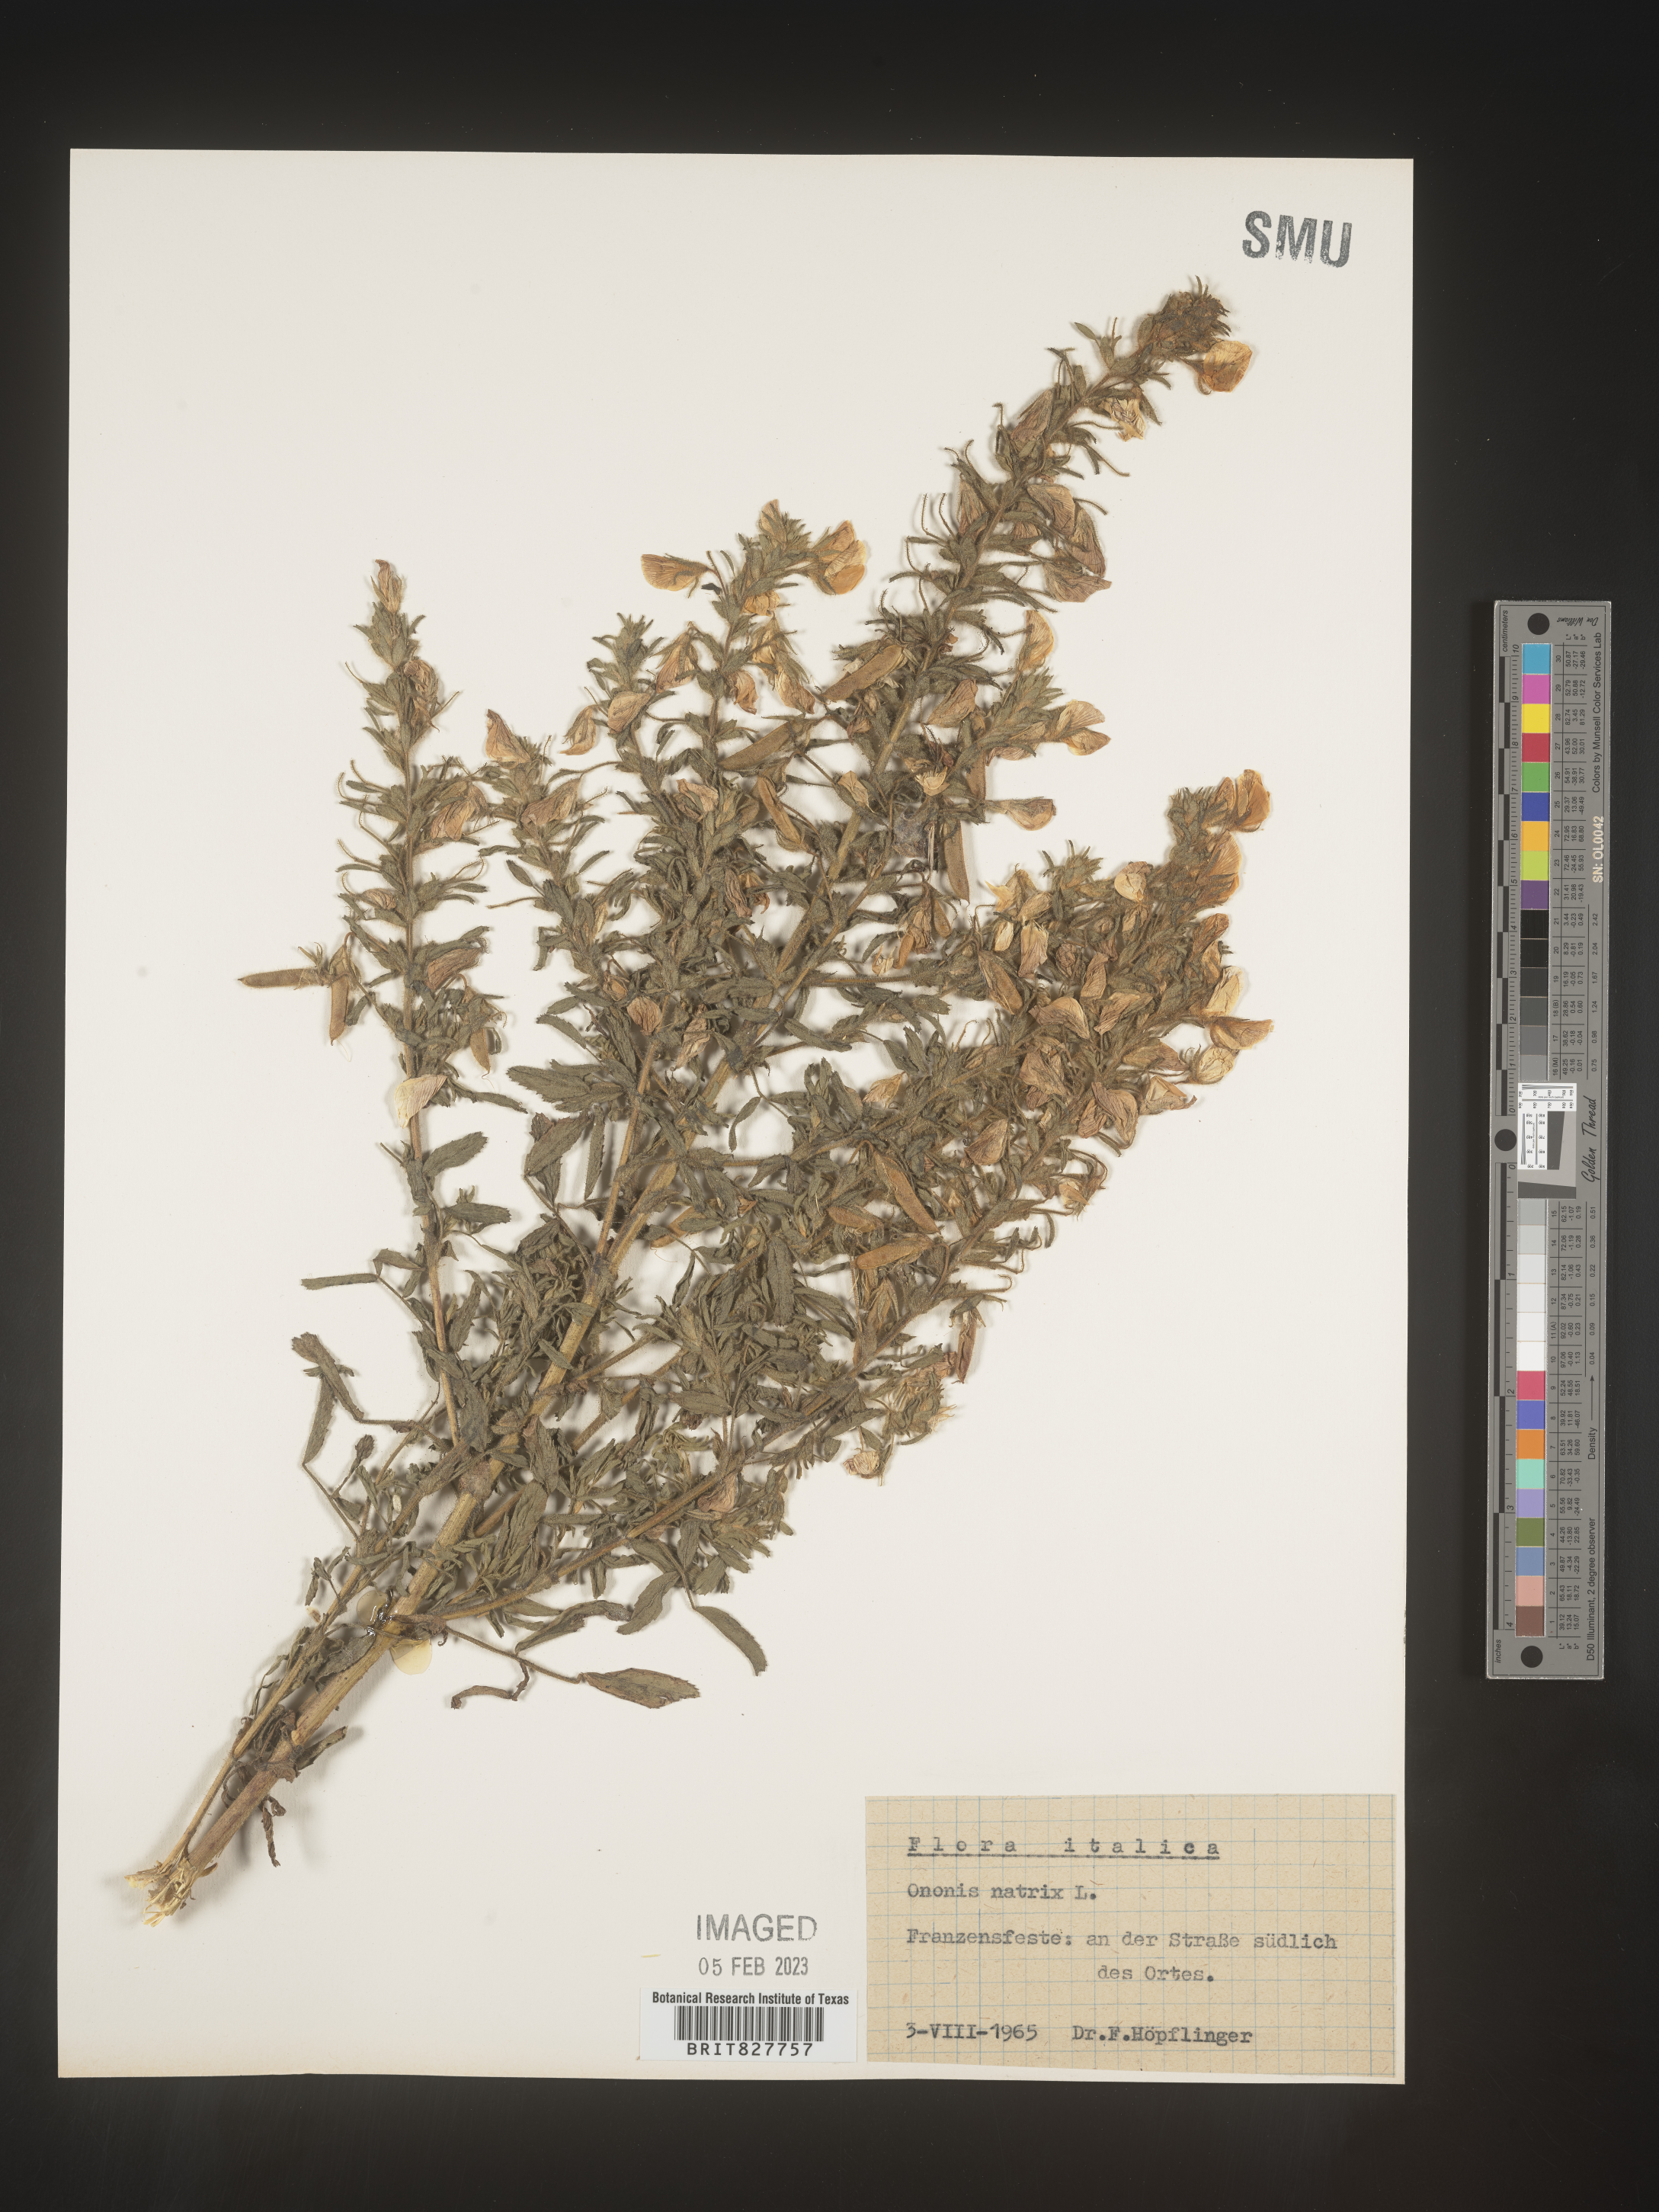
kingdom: Plantae
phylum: Tracheophyta
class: Magnoliopsida
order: Fabales
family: Fabaceae
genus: Ononis
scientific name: Ononis
